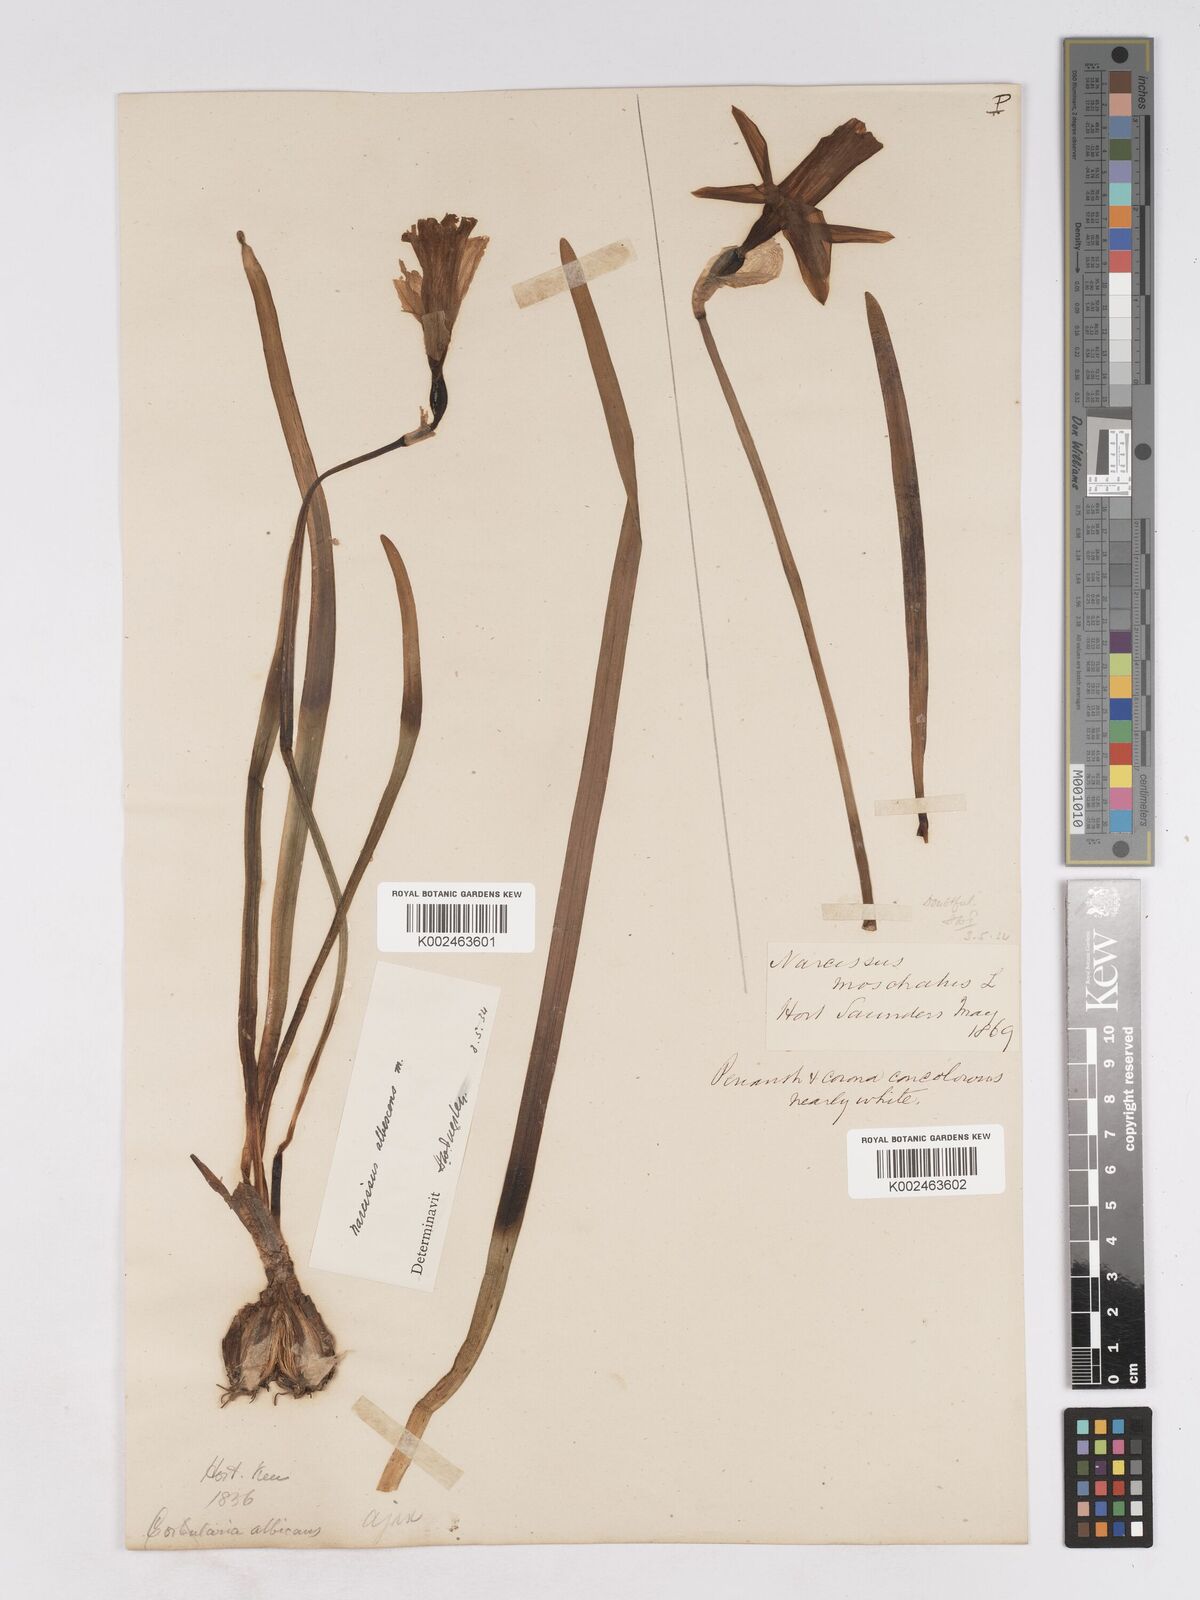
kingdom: Plantae
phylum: Tracheophyta
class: Liliopsida
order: Asparagales
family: Amaryllidaceae
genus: Narcissus
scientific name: Narcissus pallidiflorus
